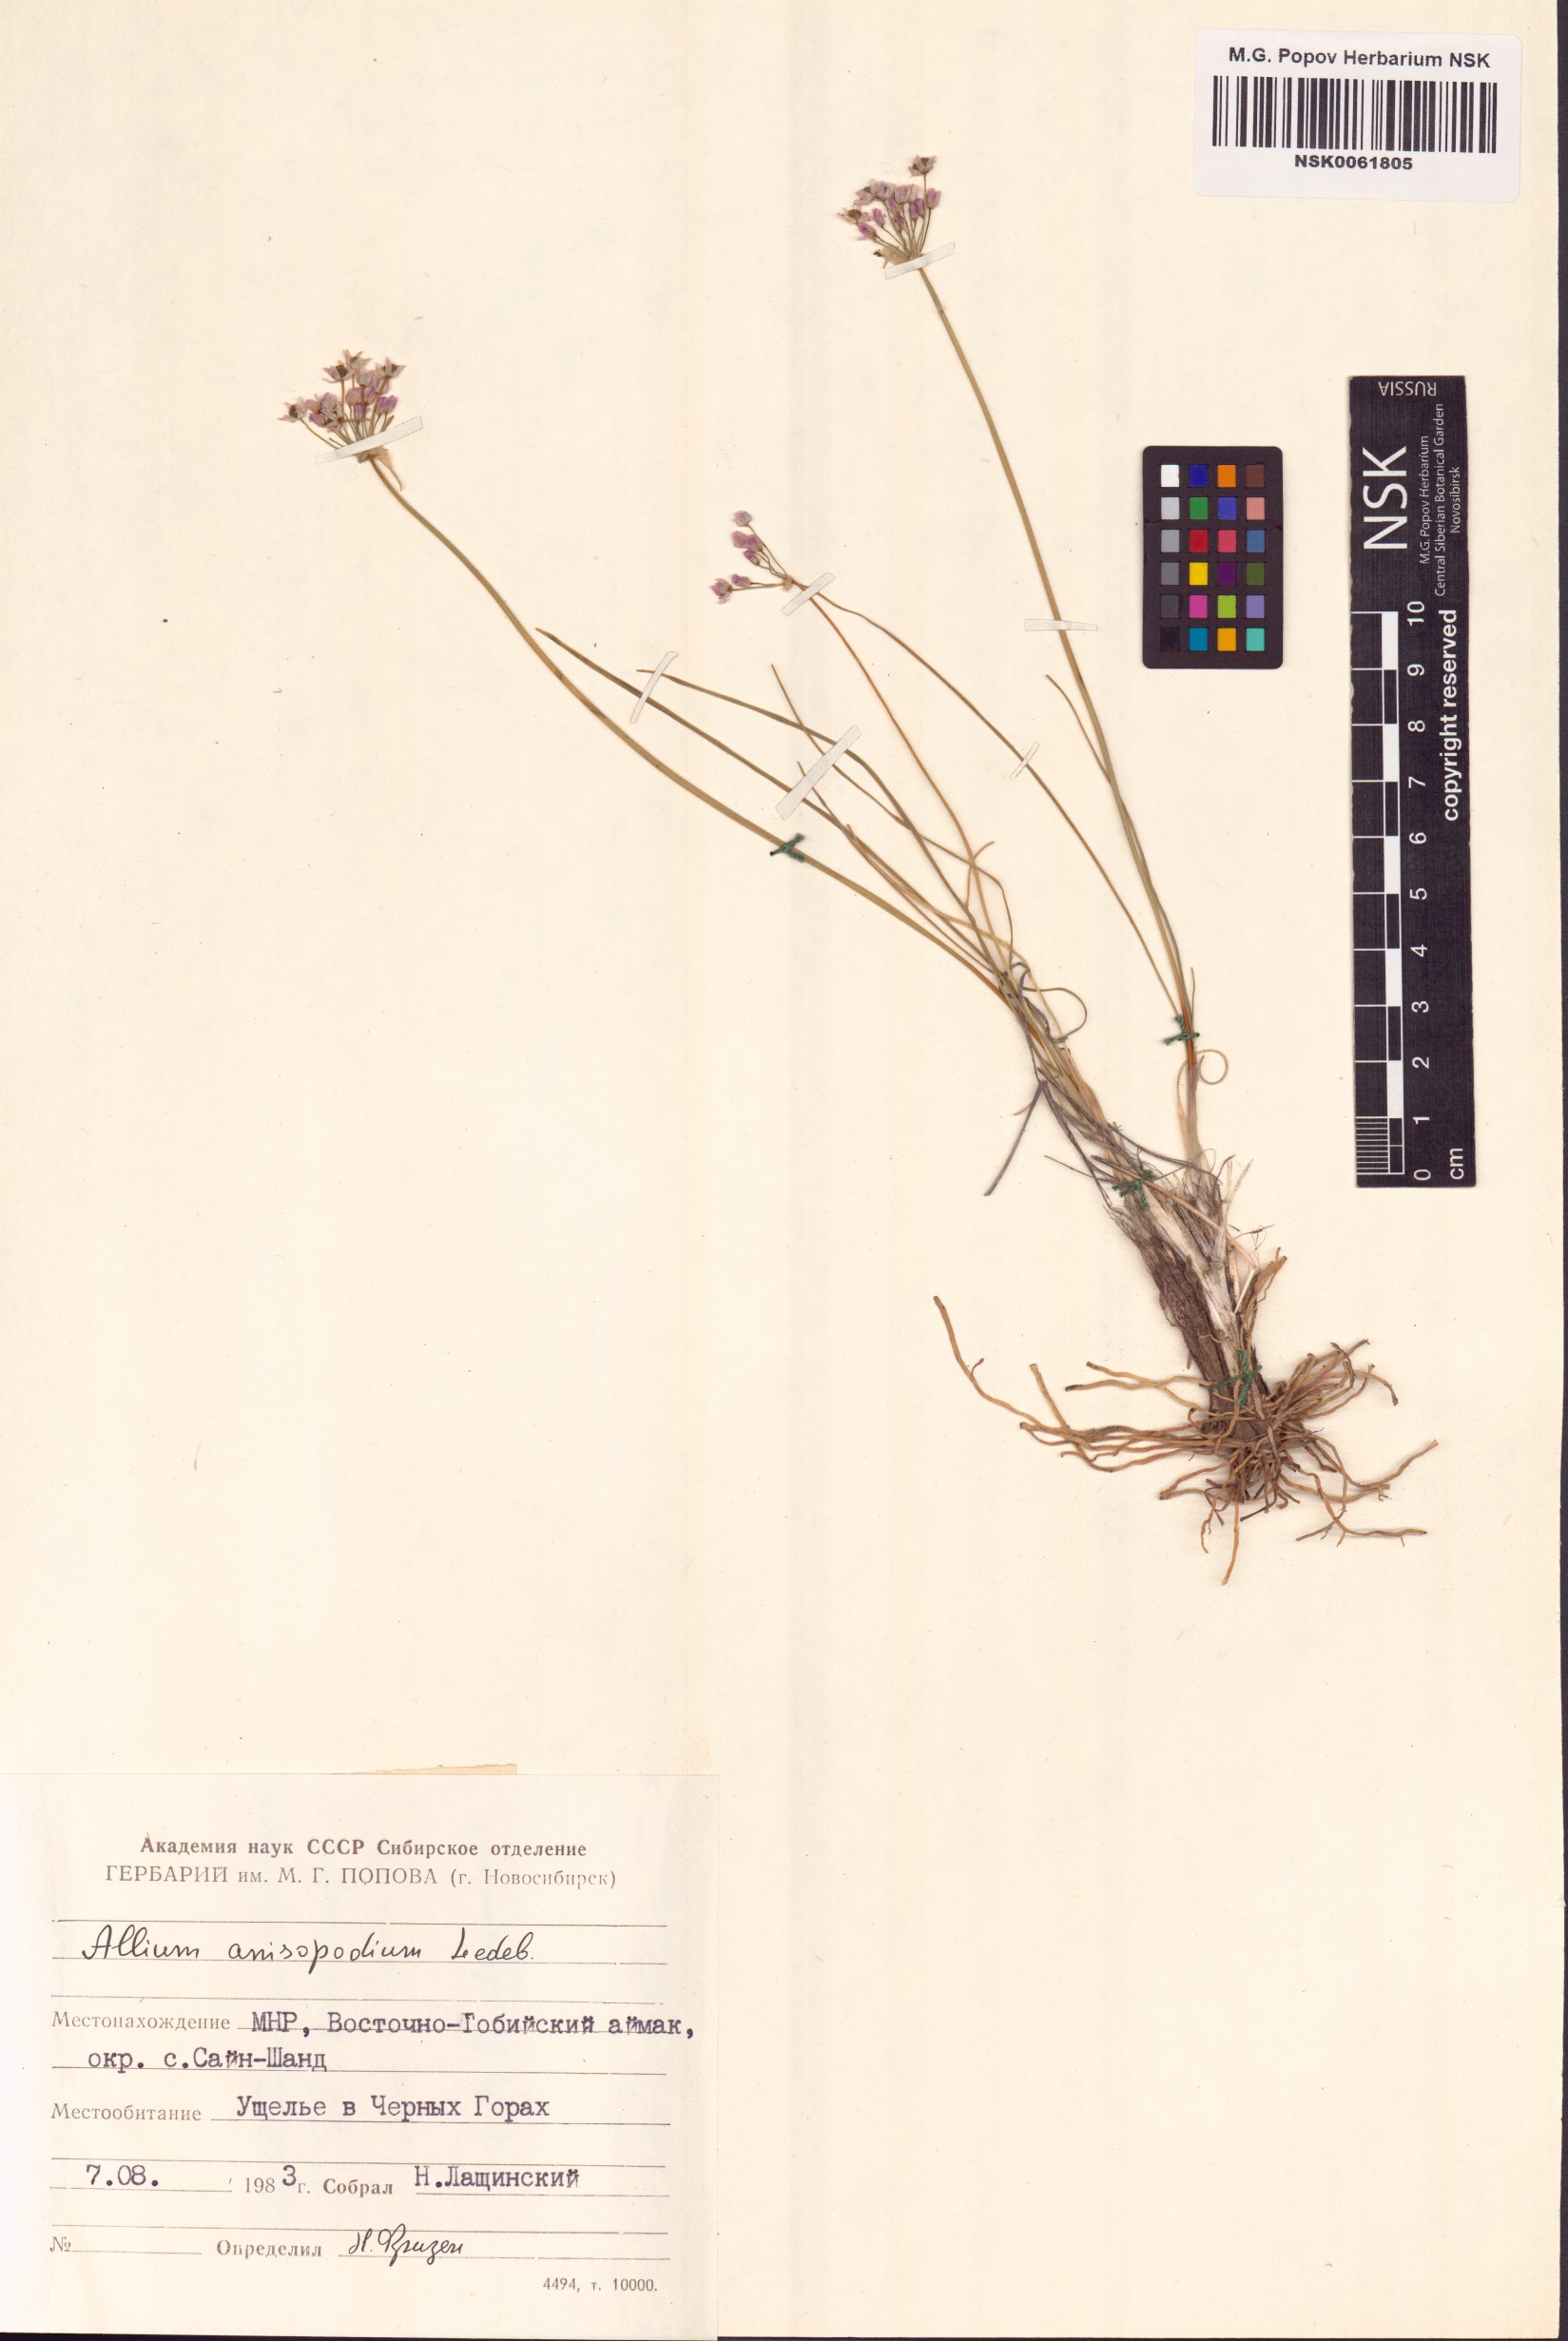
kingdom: Plantae
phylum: Tracheophyta
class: Liliopsida
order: Asparagales
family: Amaryllidaceae
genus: Allium
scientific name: Allium anisopodium
